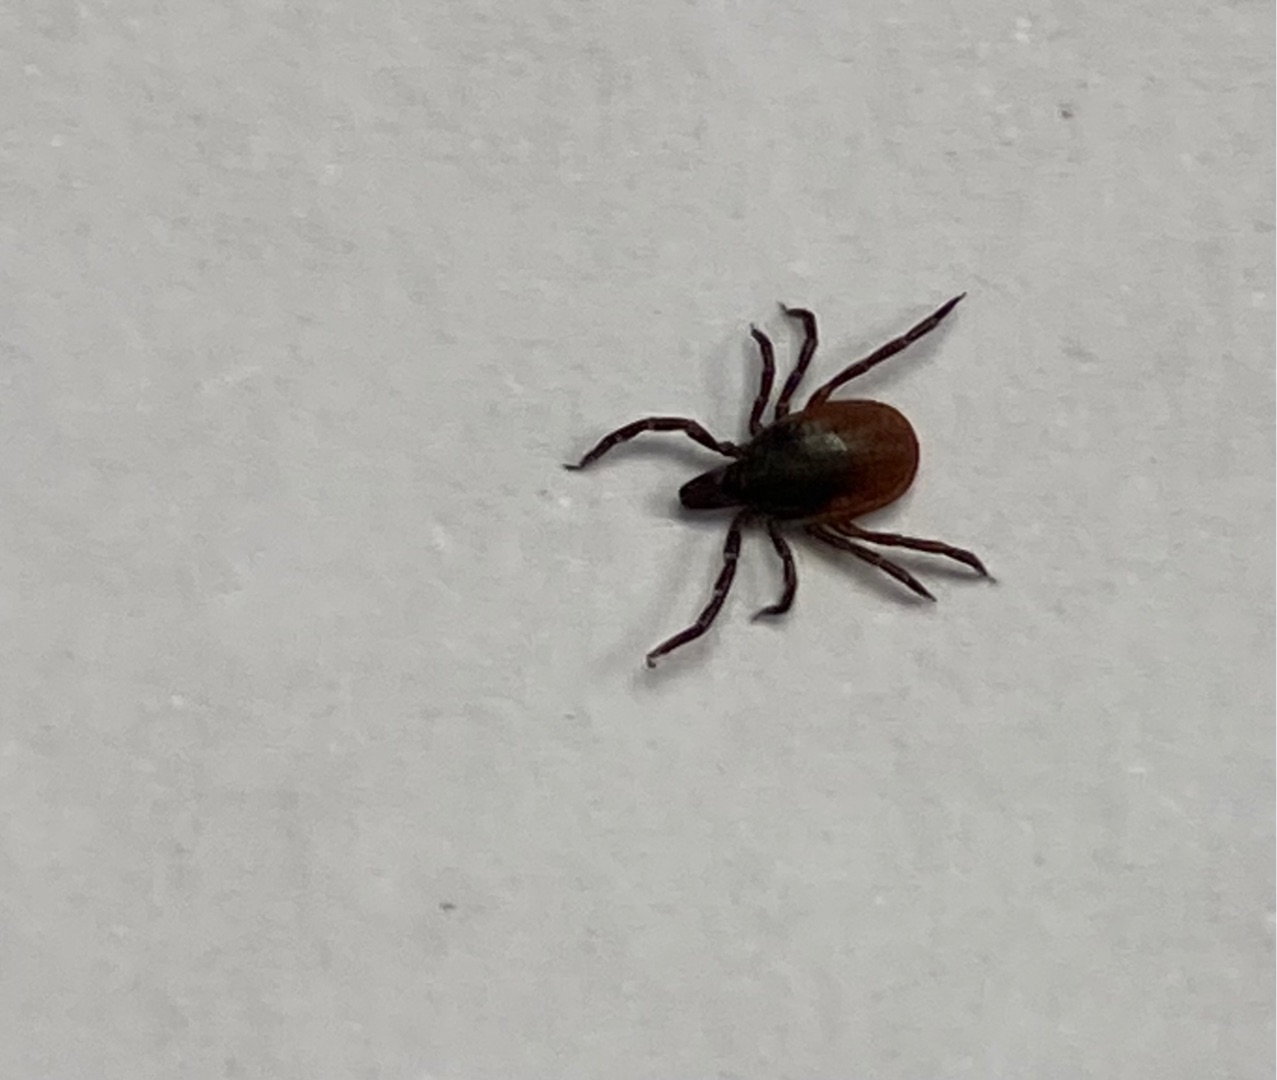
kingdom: Animalia
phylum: Arthropoda
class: Arachnida
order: Ixodida
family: Ixodidae
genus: Ixodes
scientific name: Ixodes ricinus
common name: Skovflåt
